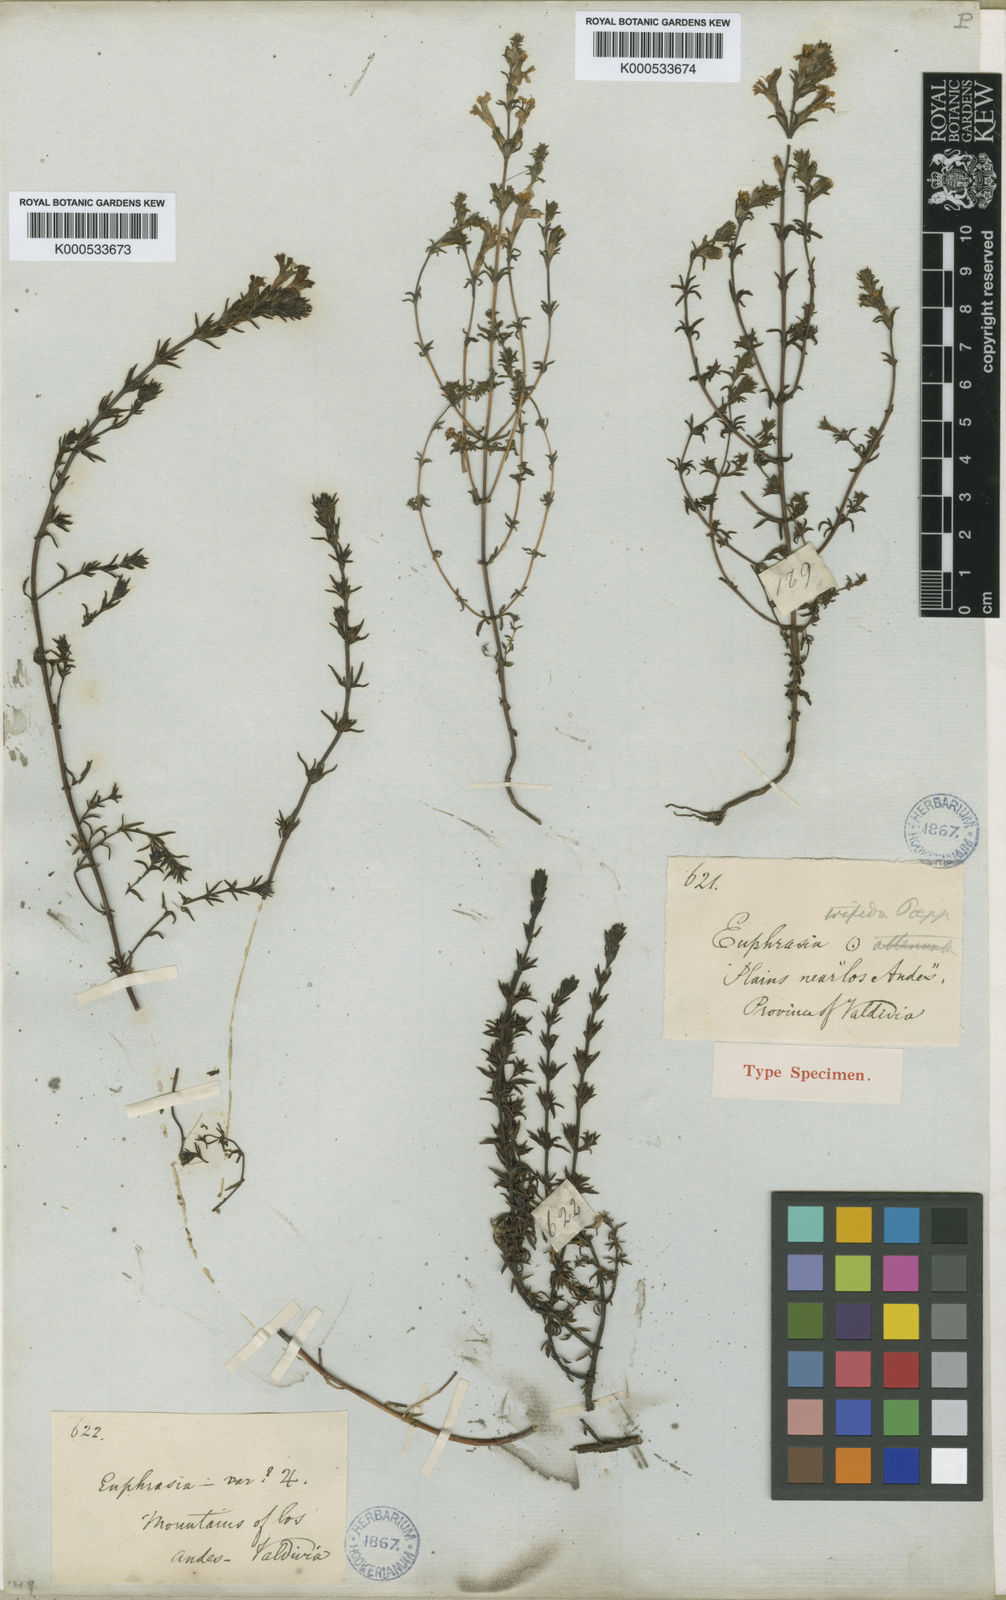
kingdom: Plantae
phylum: Tracheophyta
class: Magnoliopsida
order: Lamiales
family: Orobanchaceae
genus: Euphrasia
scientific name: Euphrasia trifida
